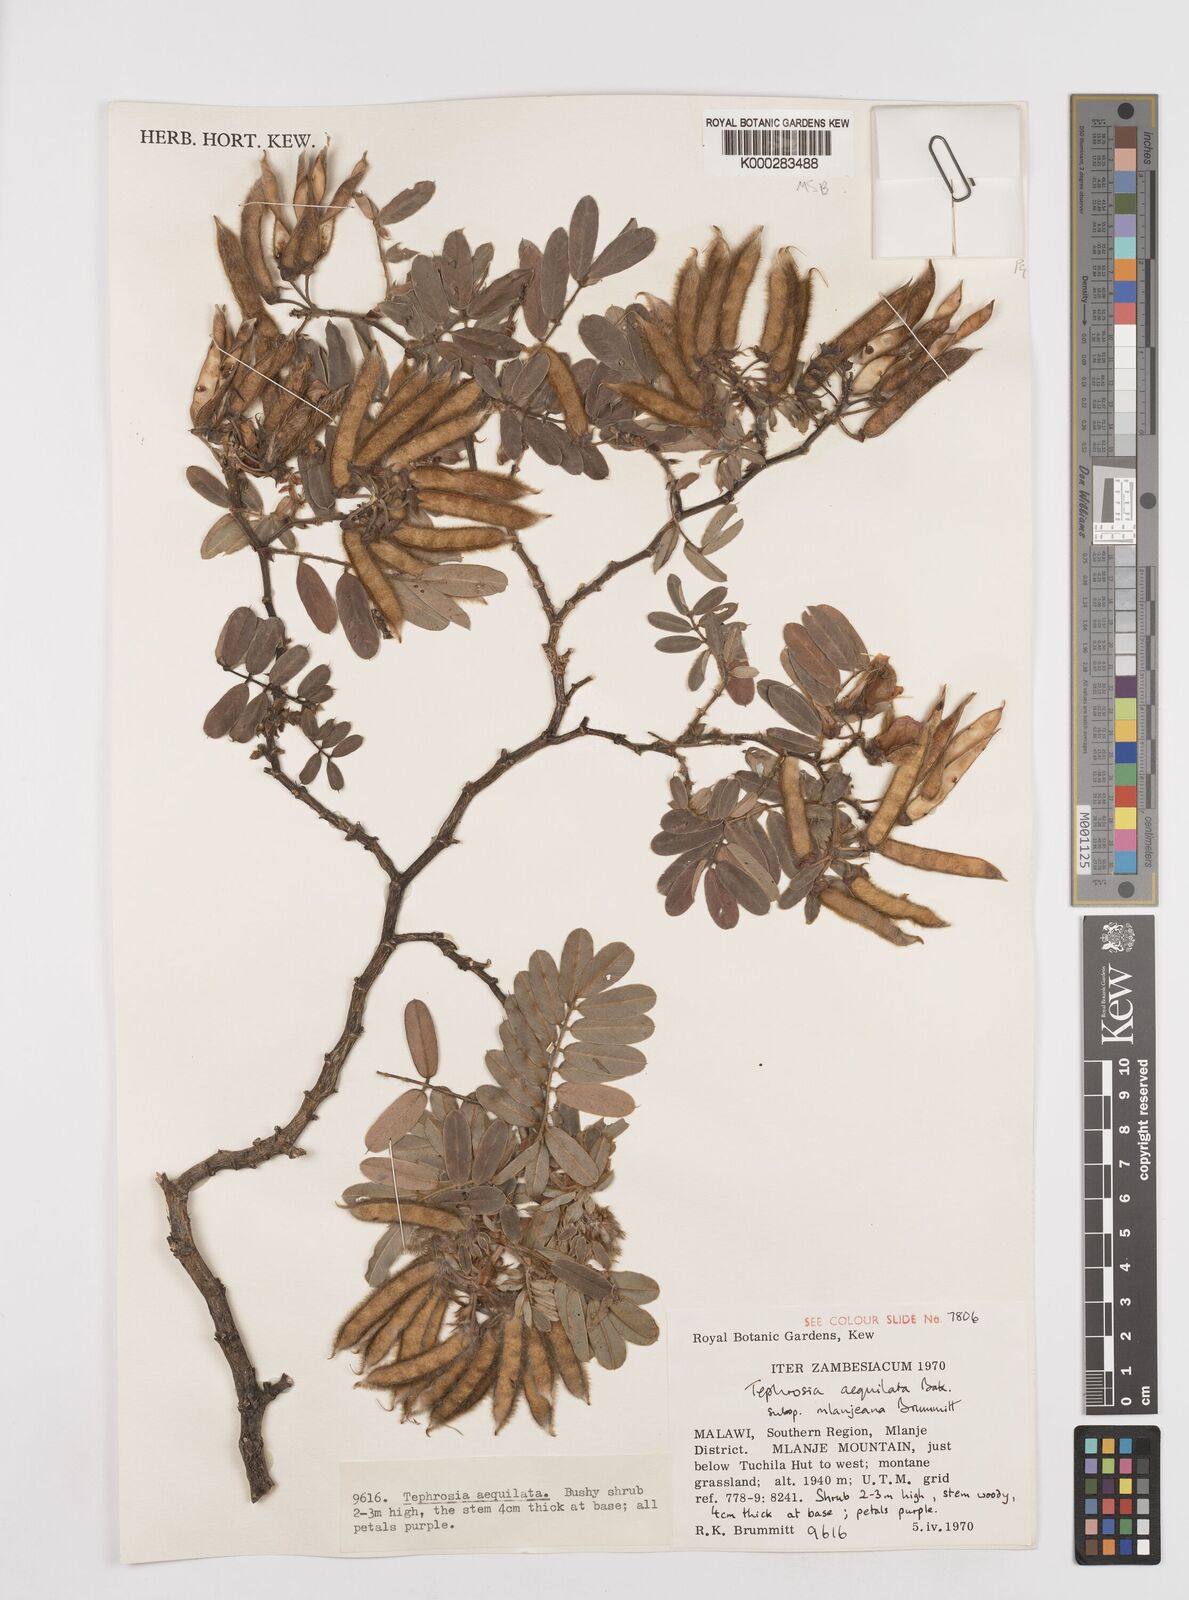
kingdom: Plantae
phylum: Tracheophyta
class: Magnoliopsida
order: Fabales
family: Fabaceae
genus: Tephrosia
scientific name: Tephrosia aequilata
